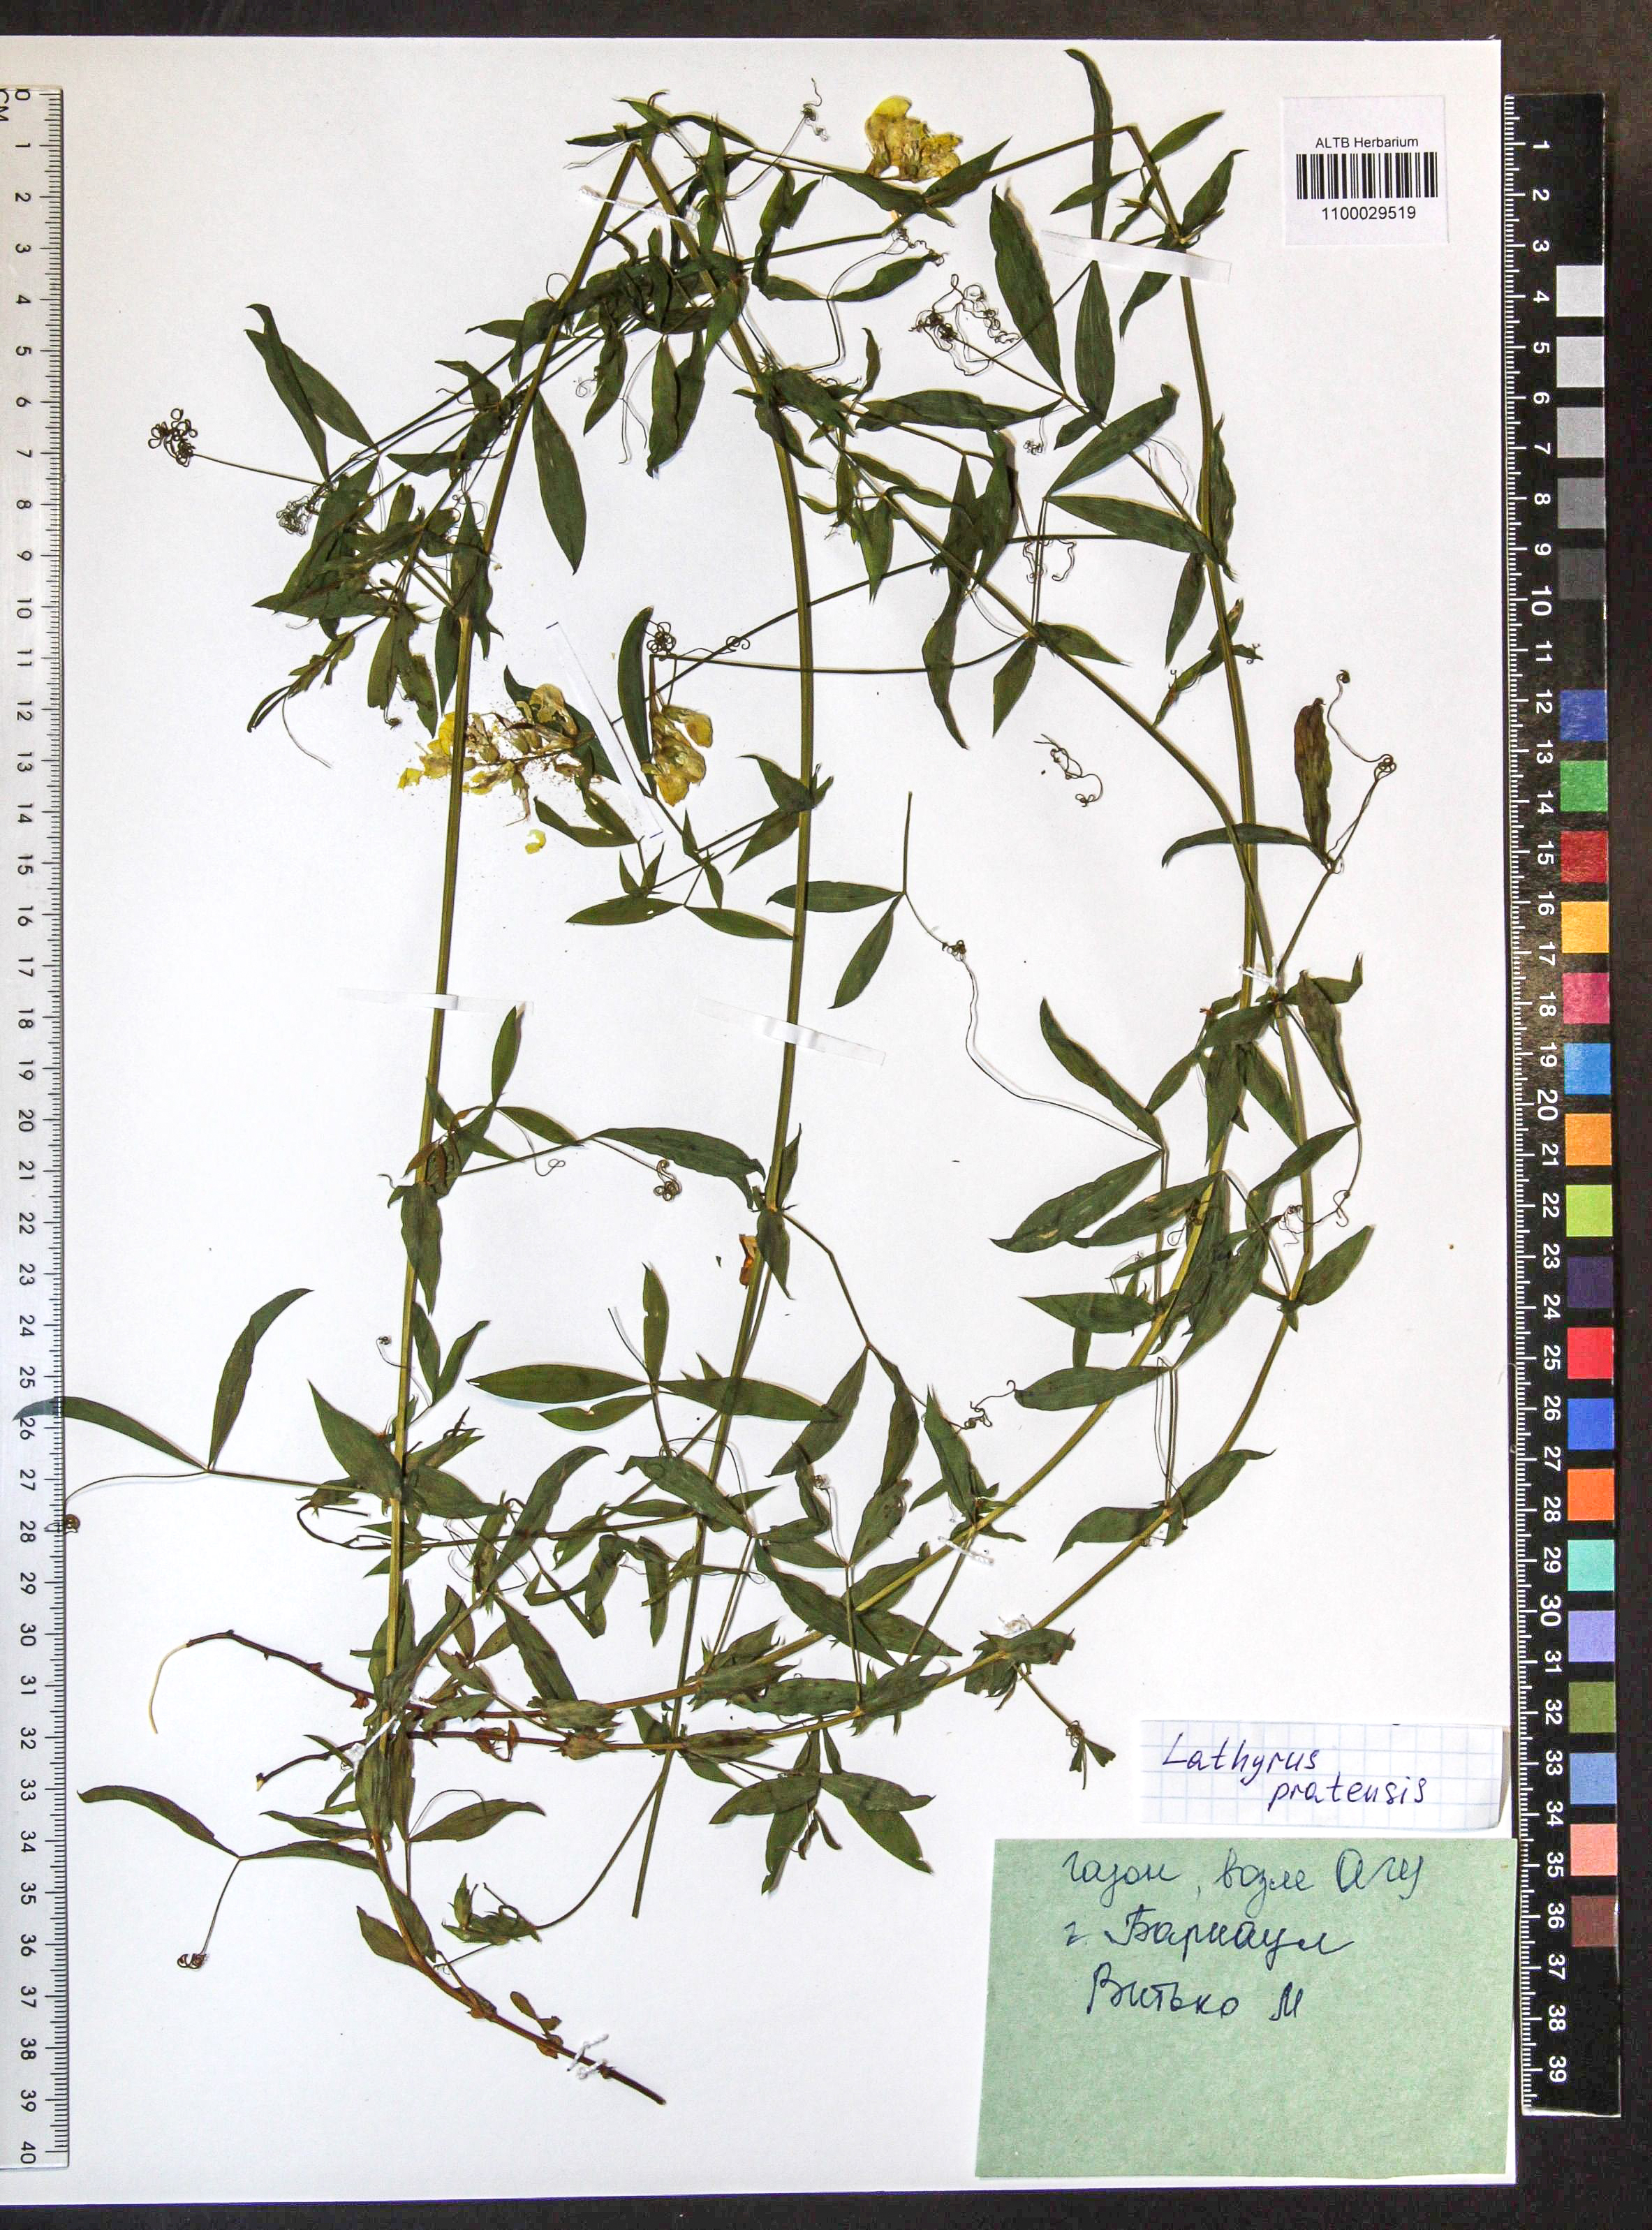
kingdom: Plantae
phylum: Tracheophyta
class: Magnoliopsida
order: Fabales
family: Fabaceae
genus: Lathyrus
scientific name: Lathyrus pratensis
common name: Meadow vetchling
